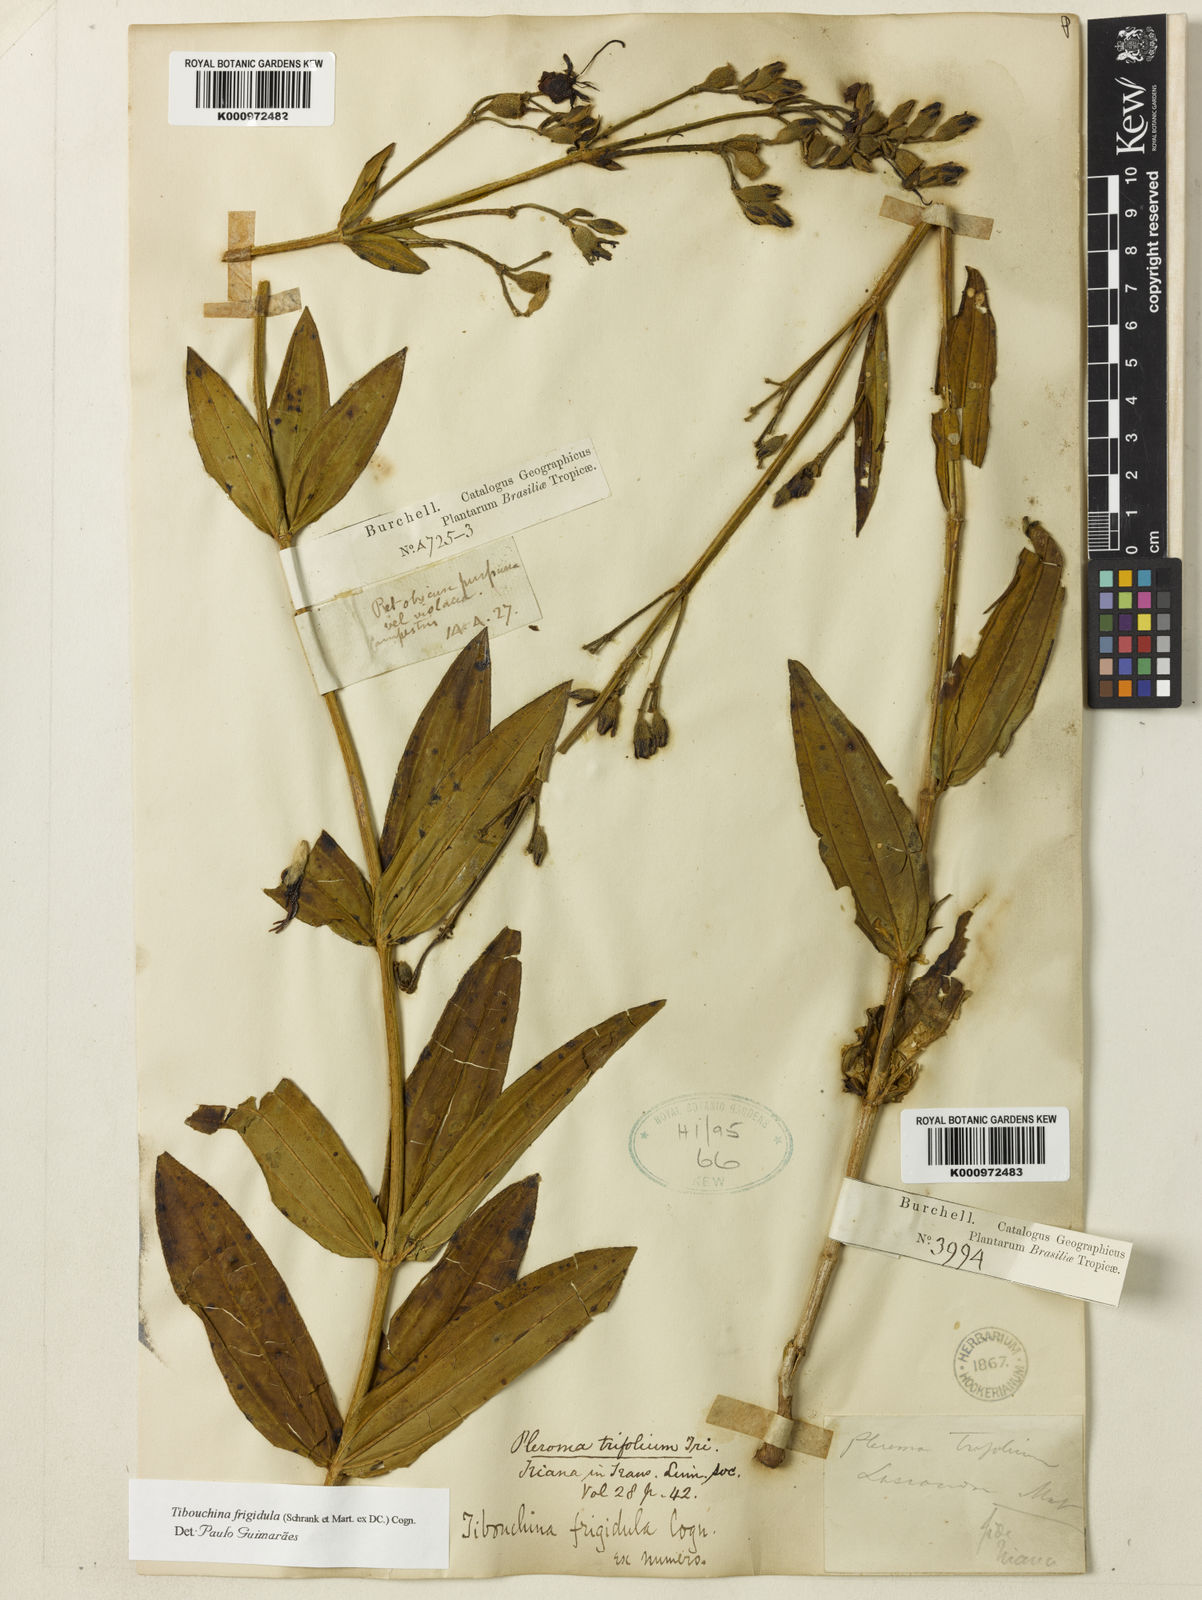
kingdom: Plantae
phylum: Tracheophyta
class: Magnoliopsida
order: Myrtales
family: Melastomataceae
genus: Pleroma
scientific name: Pleroma martiusianum
